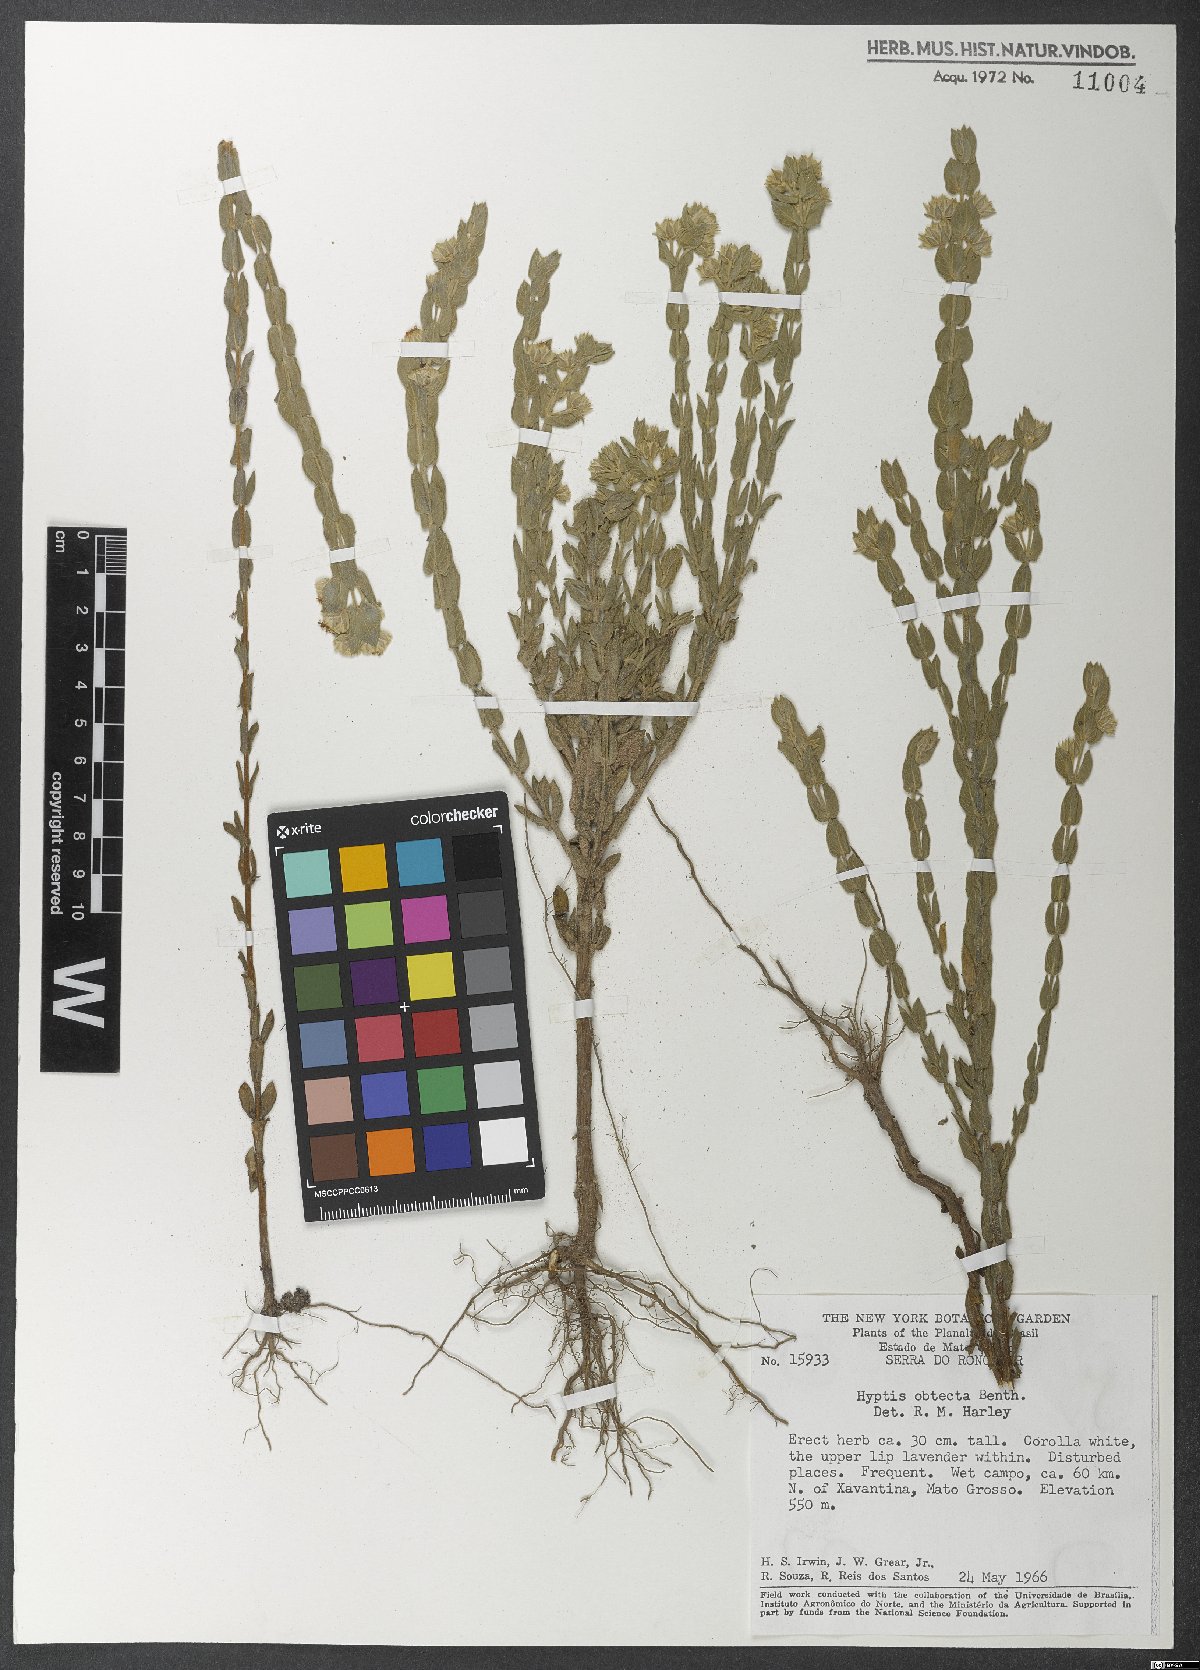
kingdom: Plantae
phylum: Tracheophyta
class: Magnoliopsida
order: Lamiales
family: Lamiaceae
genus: Hyptis
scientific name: Hyptis obtecta
